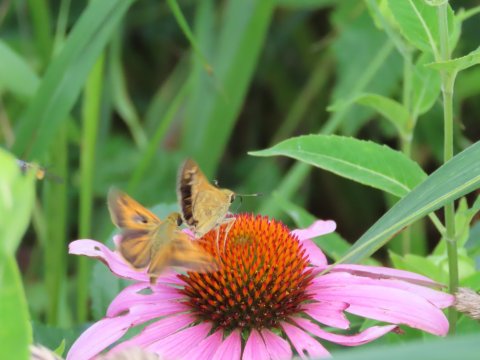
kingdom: Animalia
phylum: Arthropoda
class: Insecta
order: Lepidoptera
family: Hesperiidae
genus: Atalopedes
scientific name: Atalopedes campestris
